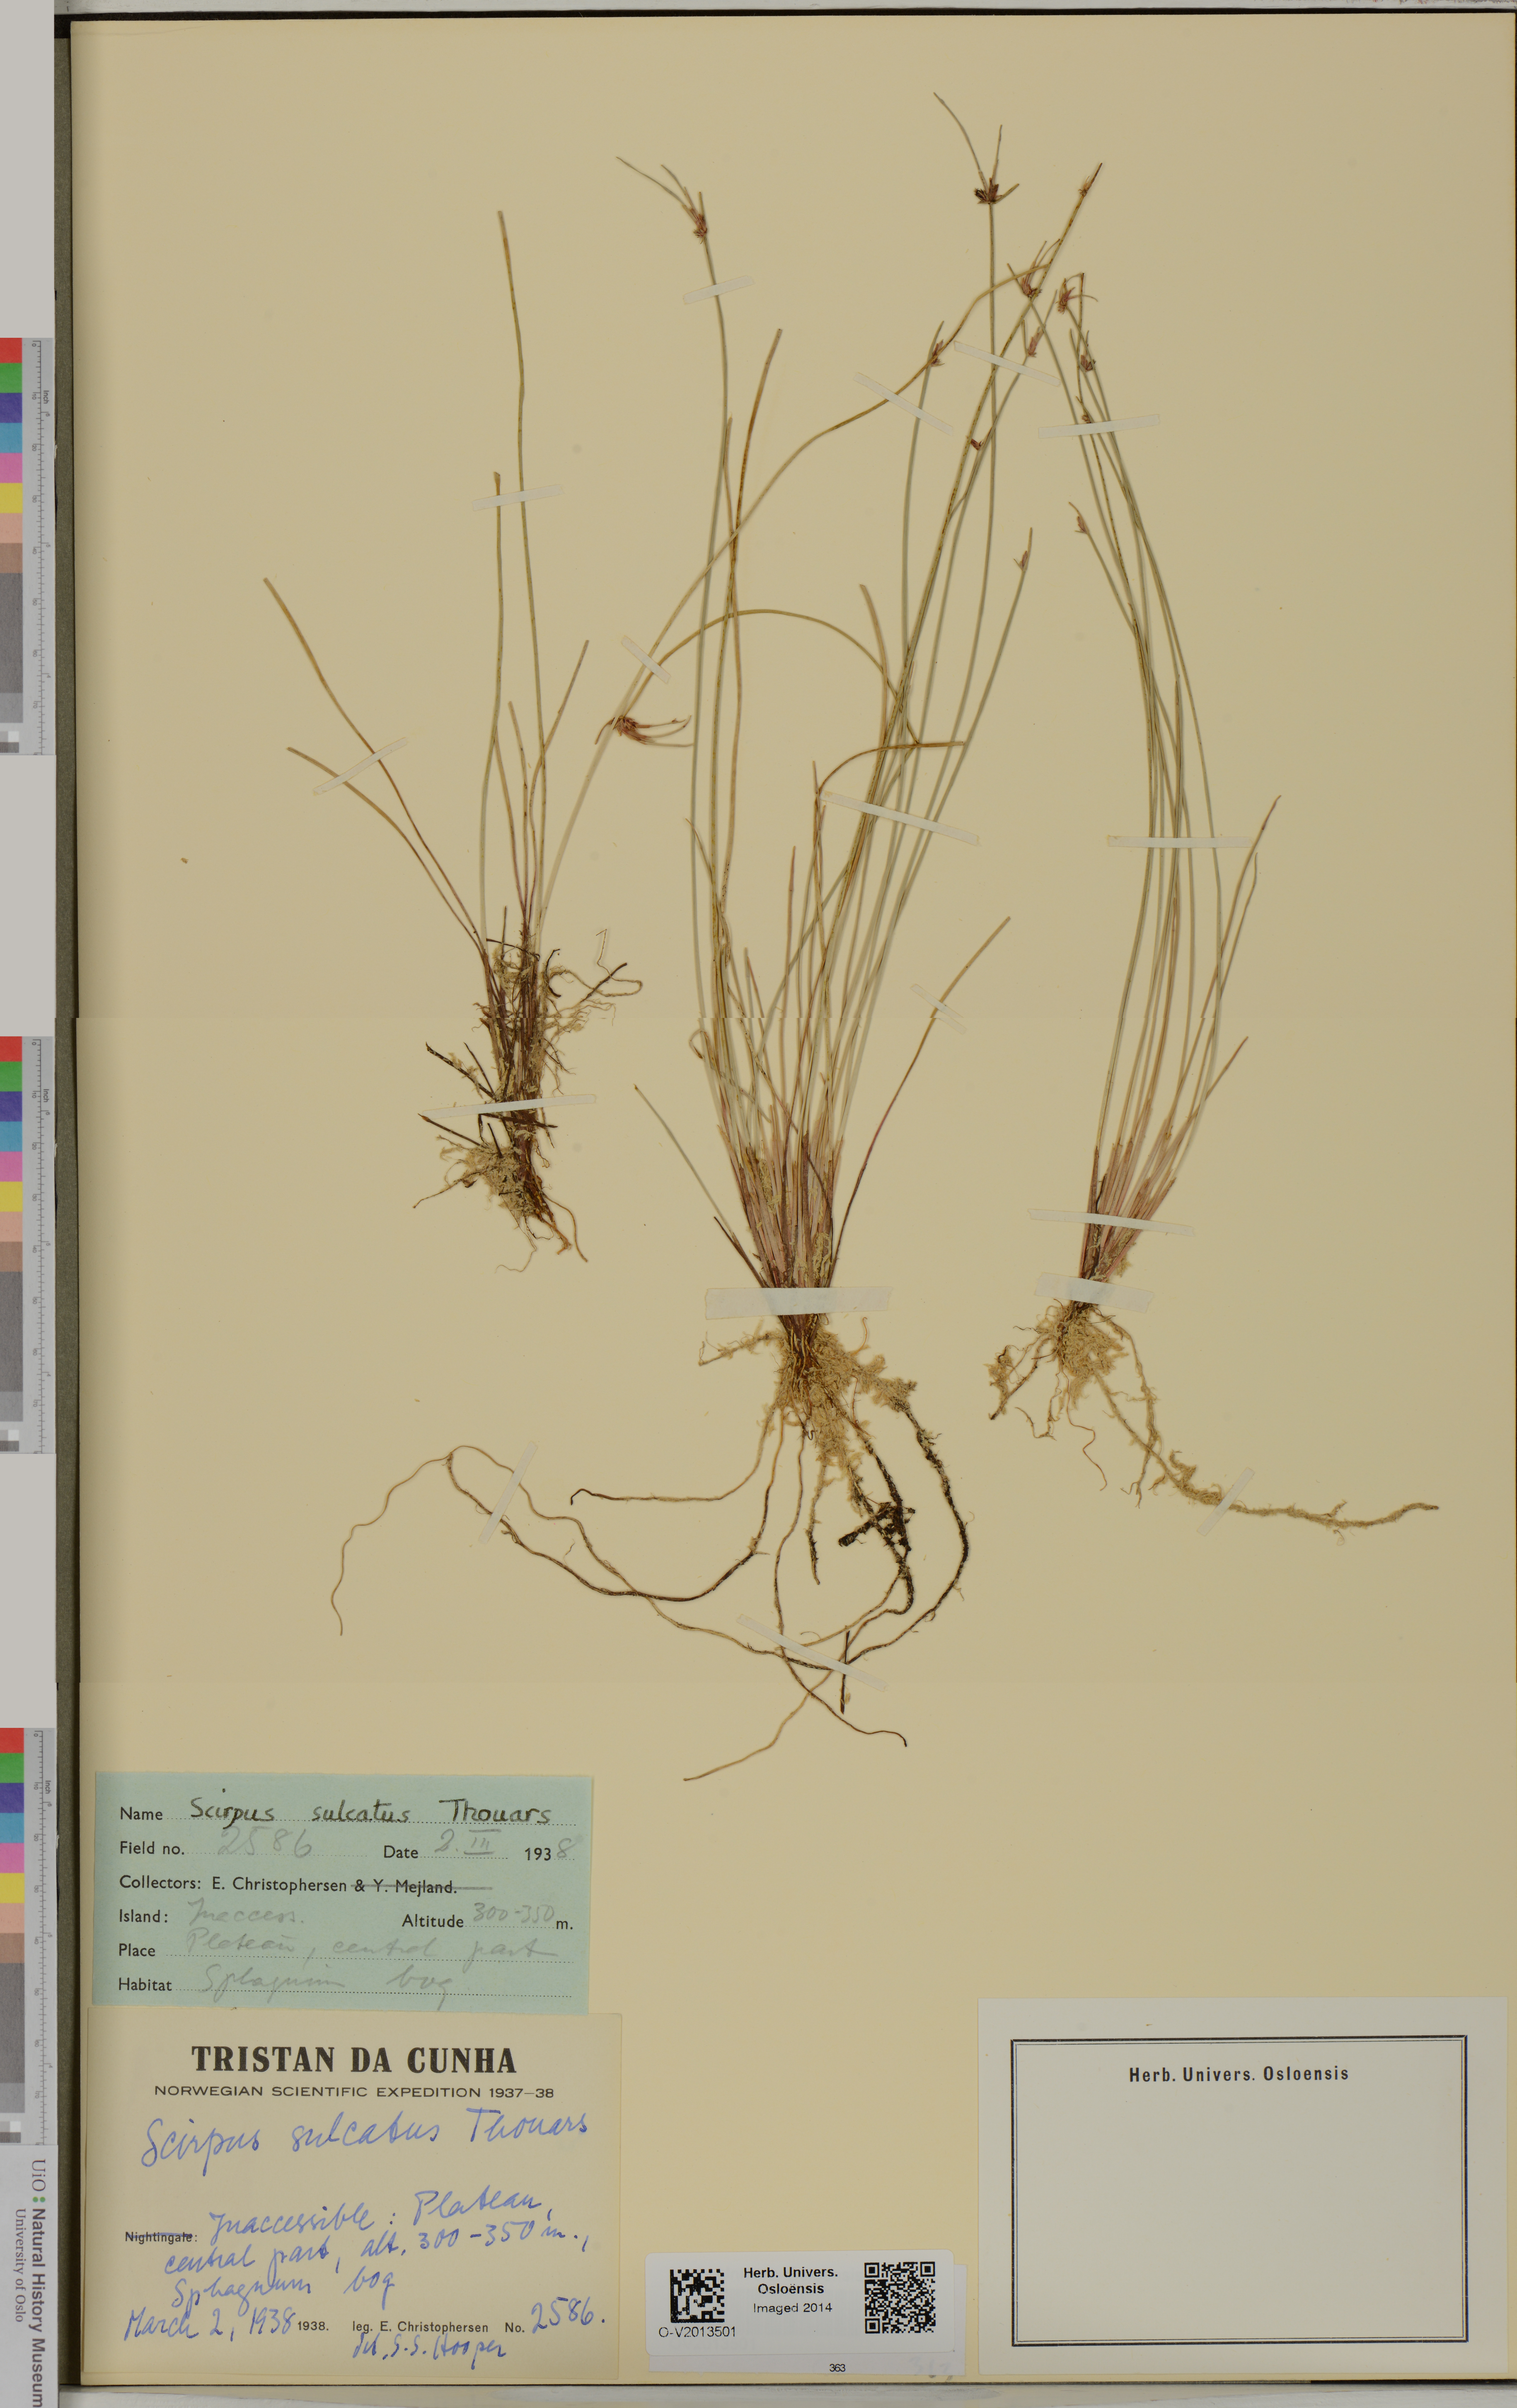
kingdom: Plantae
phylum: Tracheophyta
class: Liliopsida
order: Poales
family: Cyperaceae
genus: Isolepis
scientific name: Isolepis sulcata
